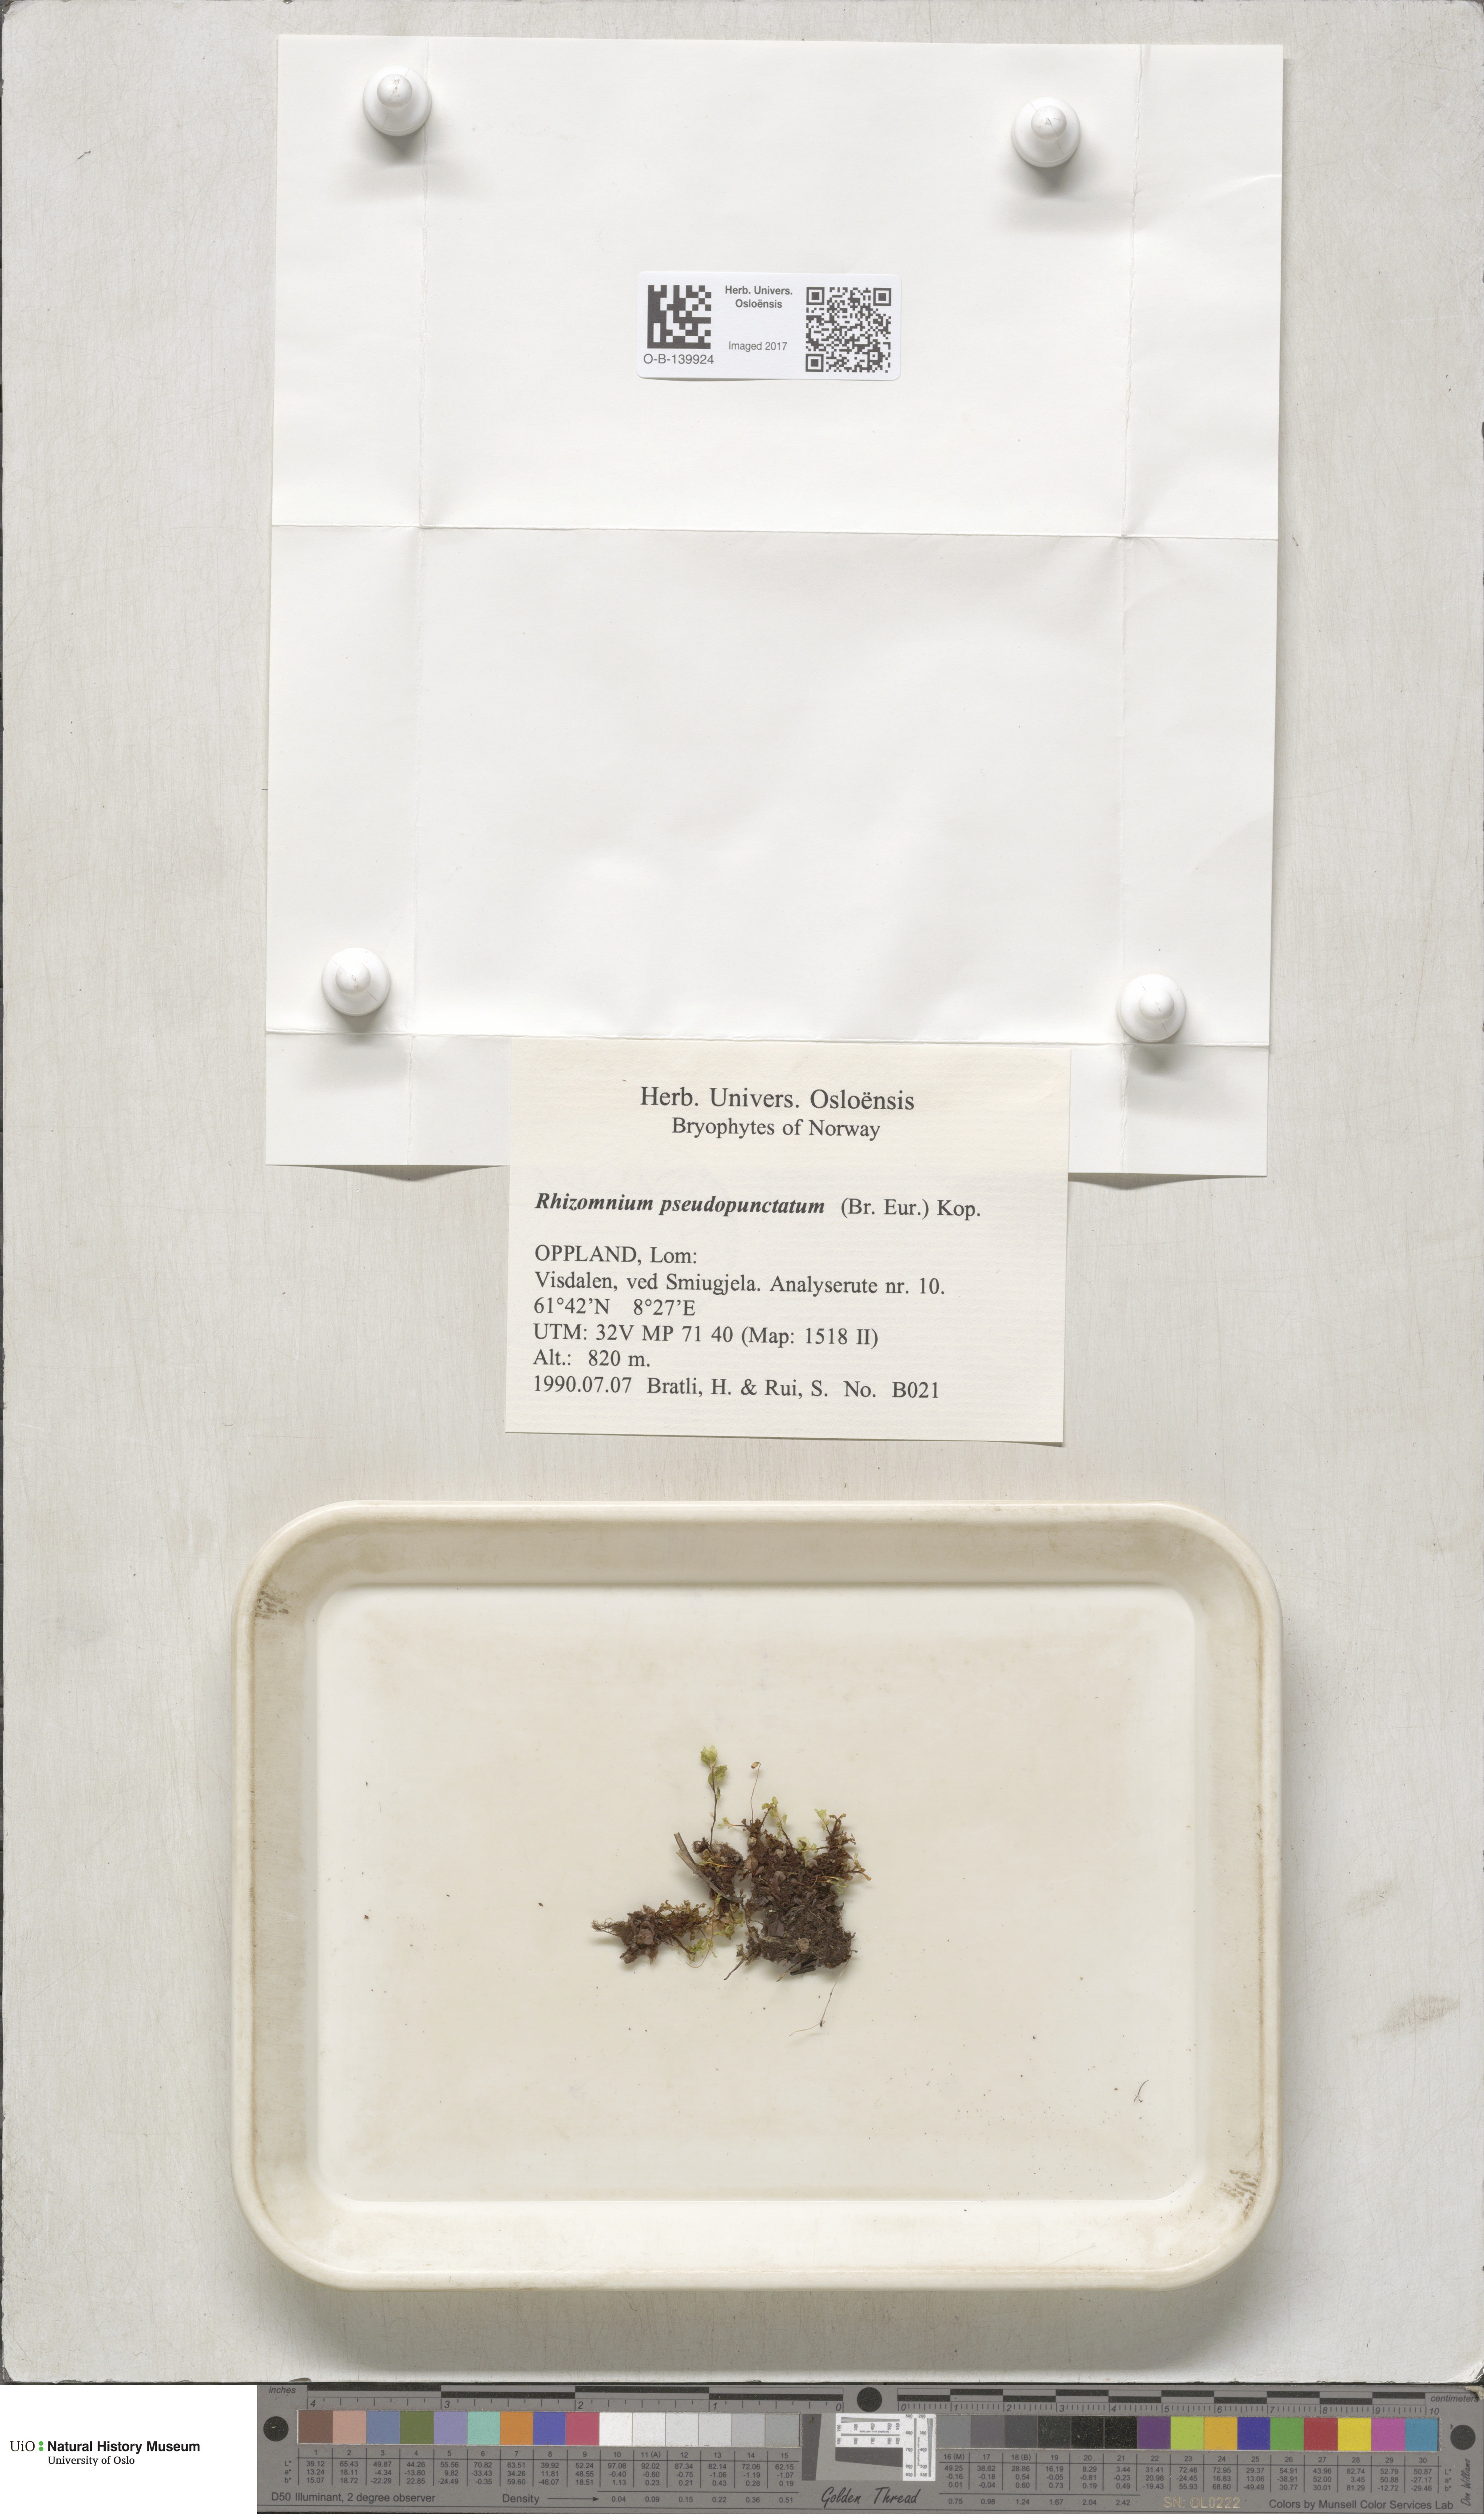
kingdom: Plantae
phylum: Bryophyta
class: Bryopsida
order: Bryales
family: Mniaceae
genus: Rhizomnium
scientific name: Rhizomnium pseudopunctatum
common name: Felted leafy moss
